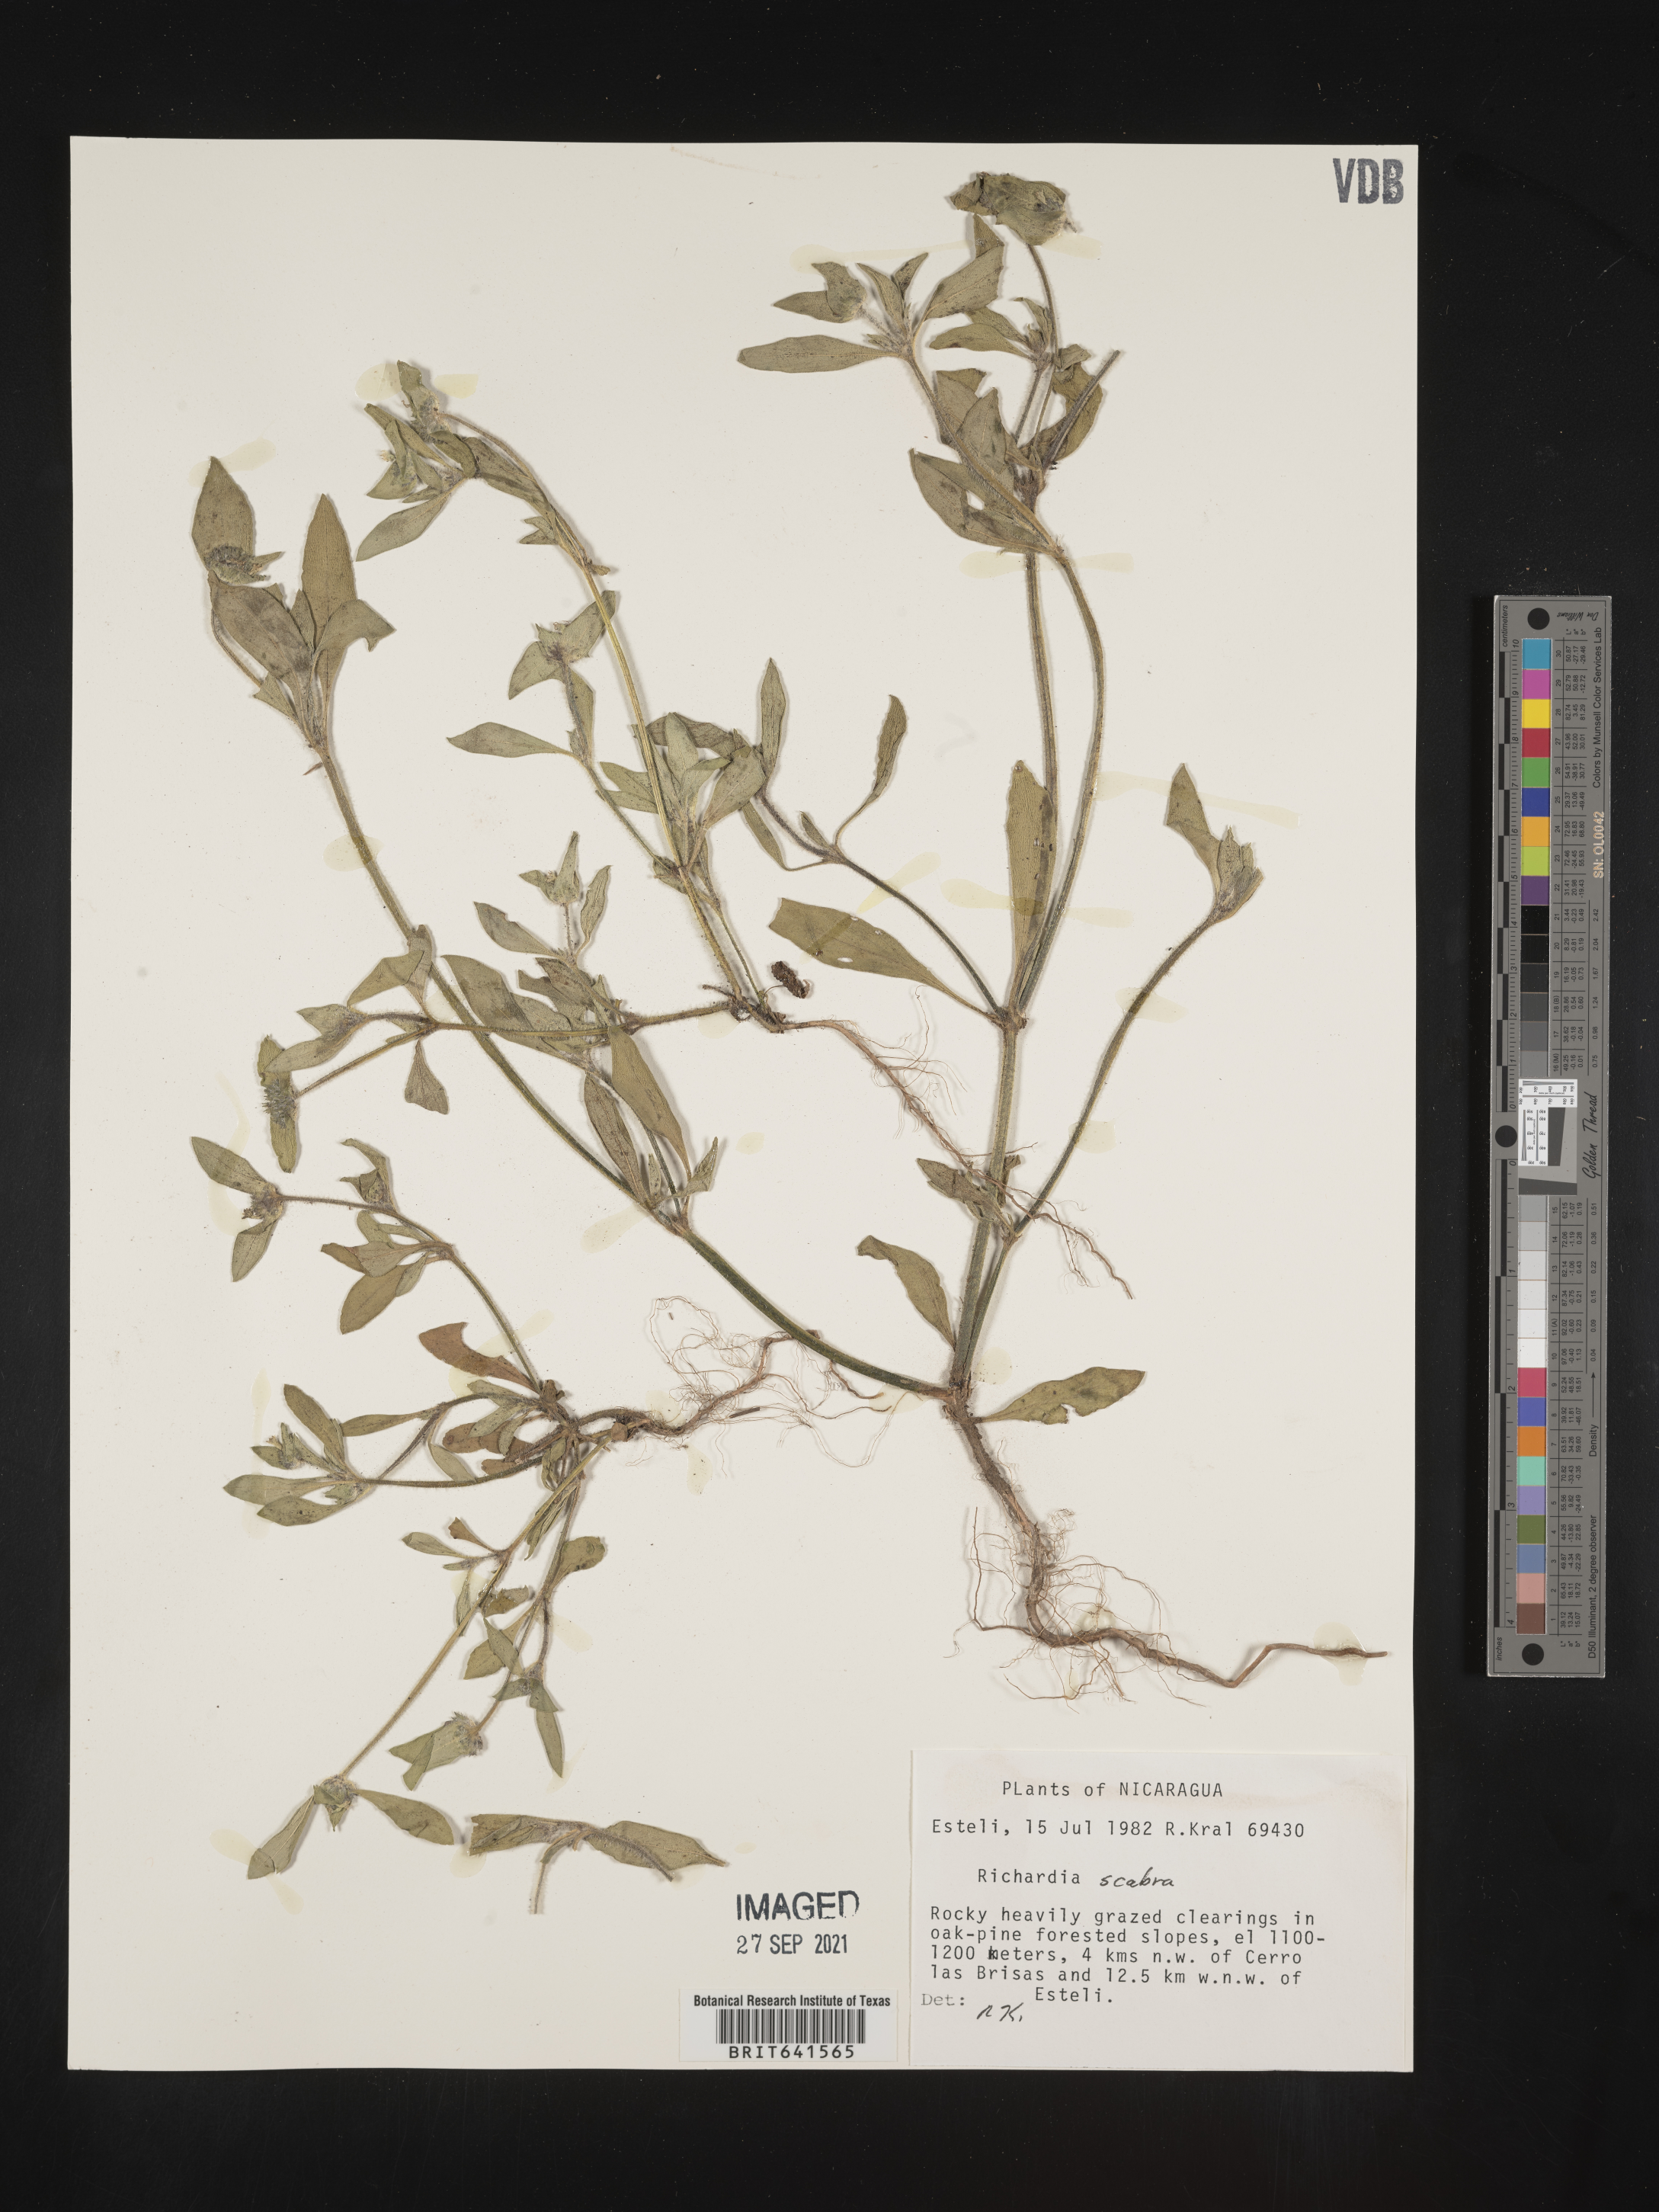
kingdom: Plantae
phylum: Tracheophyta
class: Magnoliopsida
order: Gentianales
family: Rubiaceae
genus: Richardia
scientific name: Richardia
